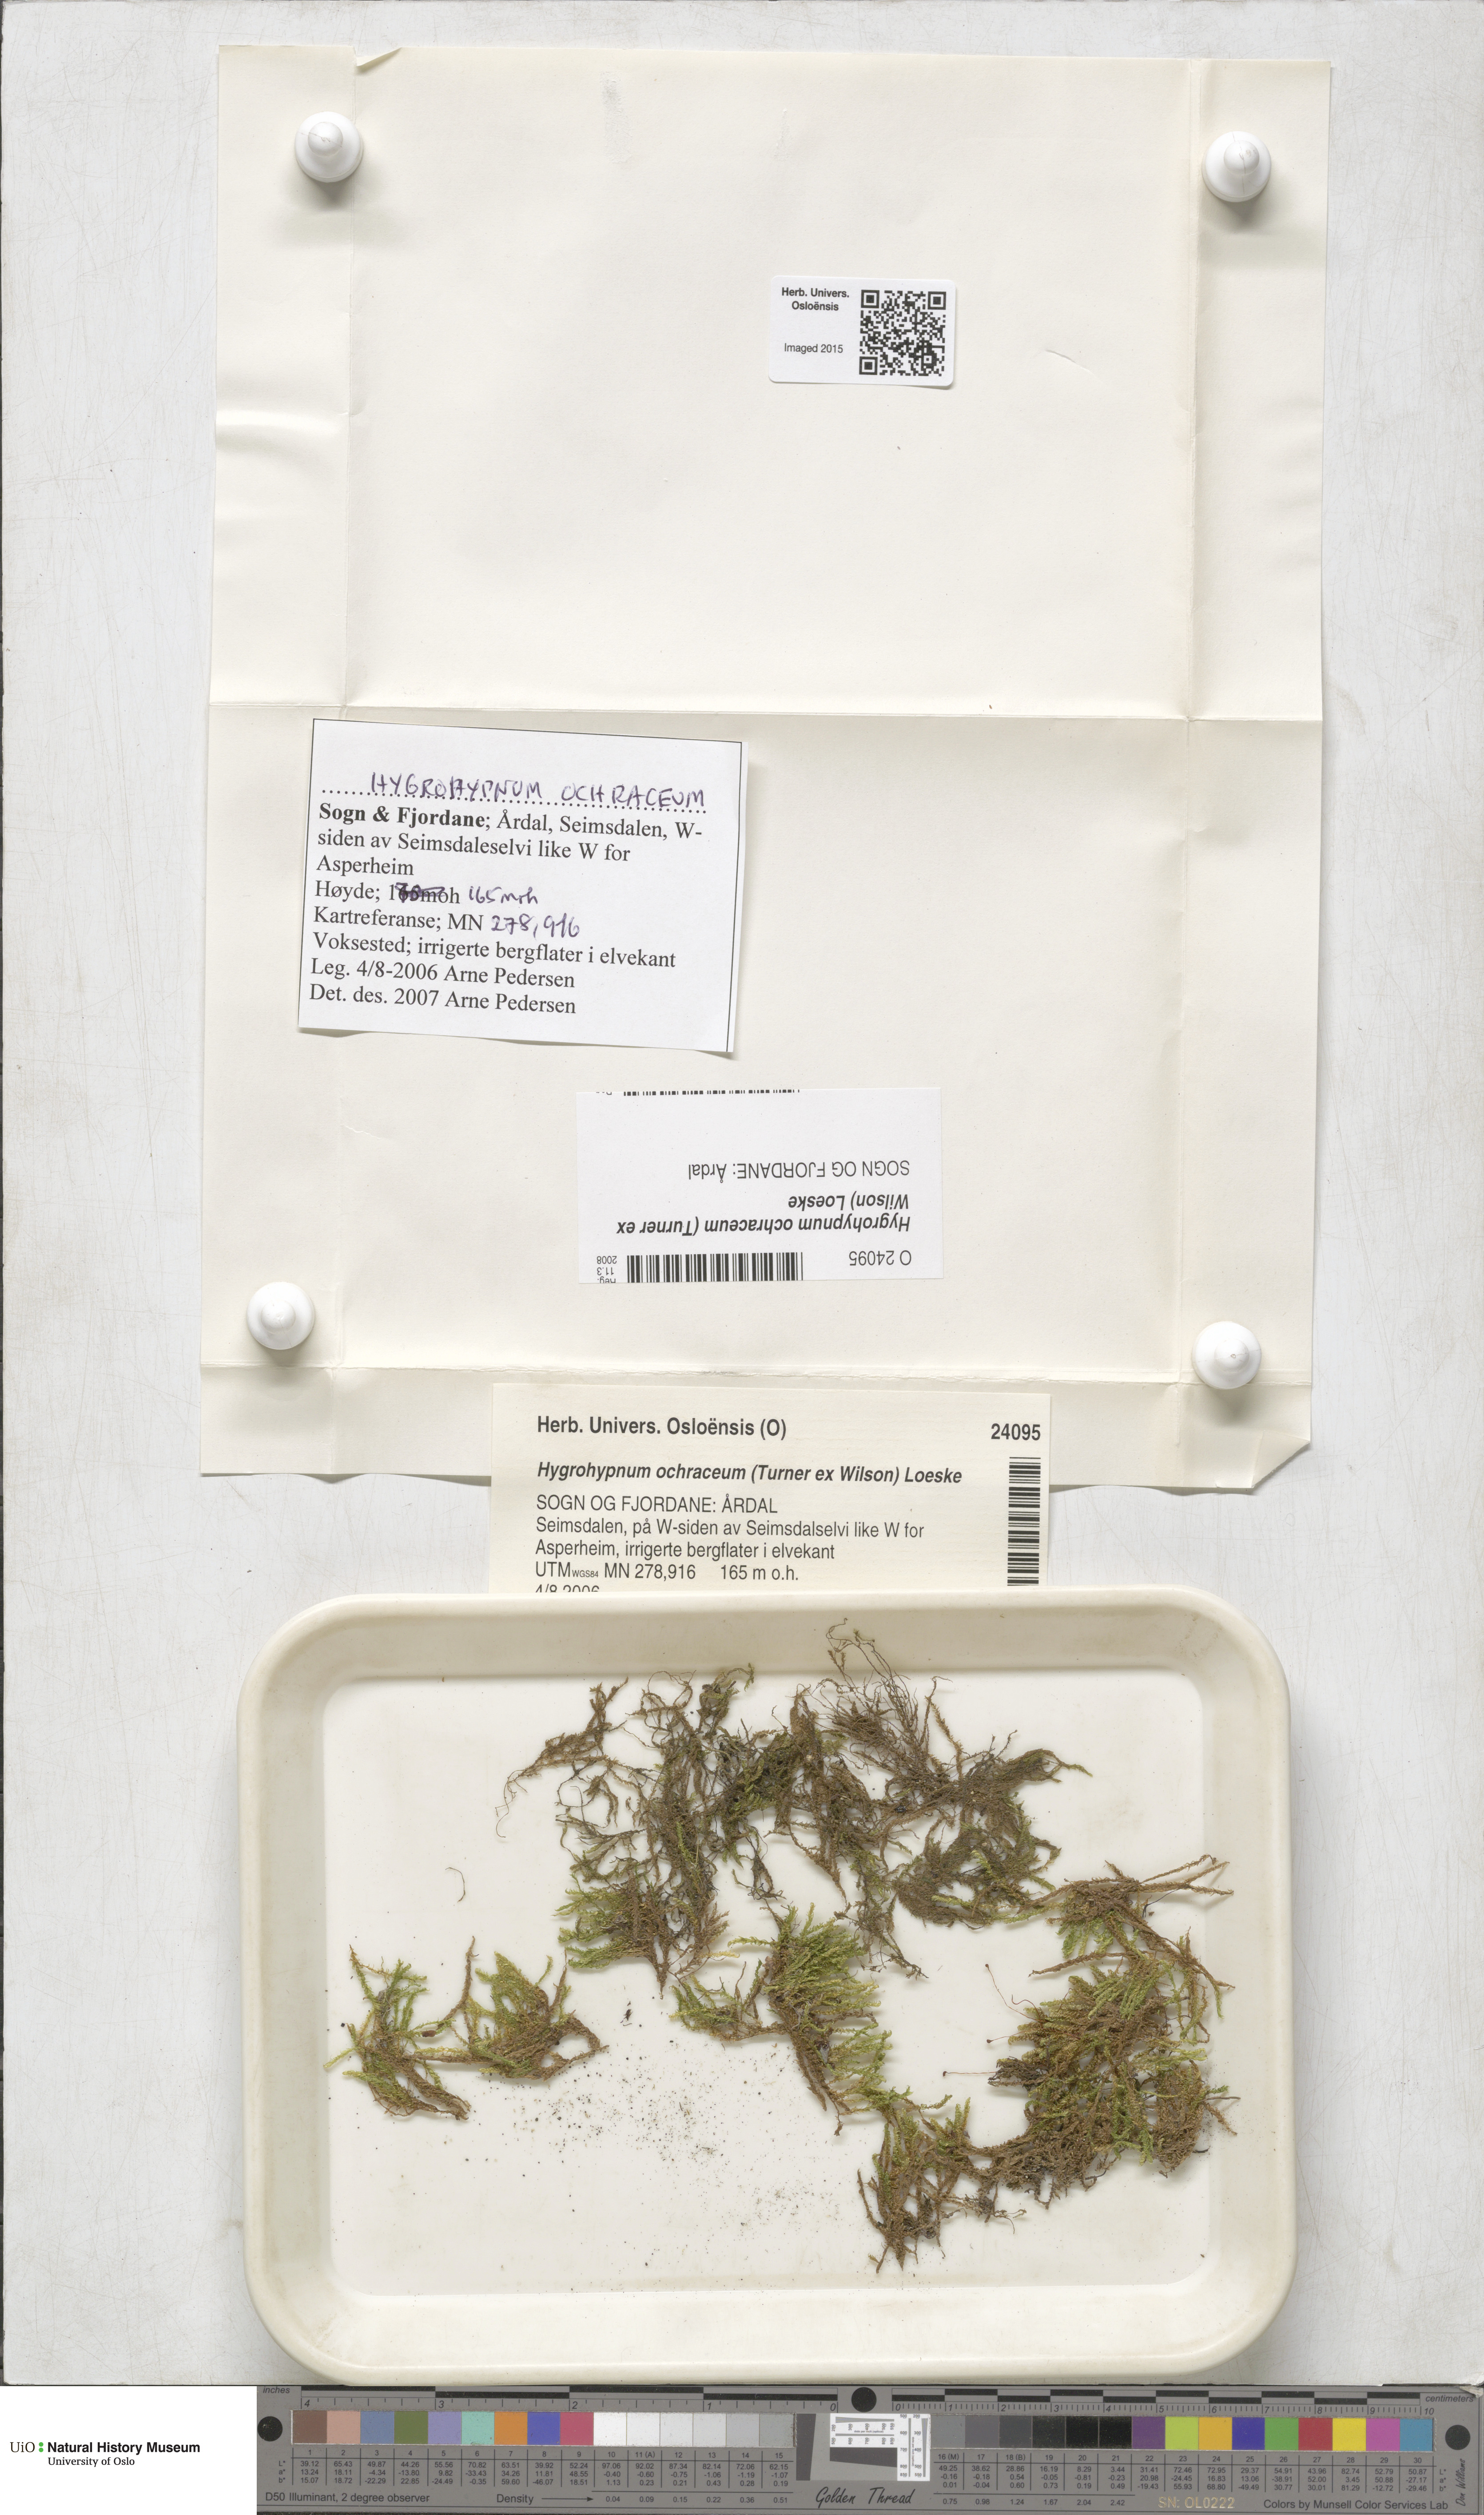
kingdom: Plantae
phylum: Bryophyta
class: Bryopsida
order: Hypnales
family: Scorpidiaceae
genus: Hygrohypnella
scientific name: Hygrohypnella ochracea
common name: Hygrohypnum moss
